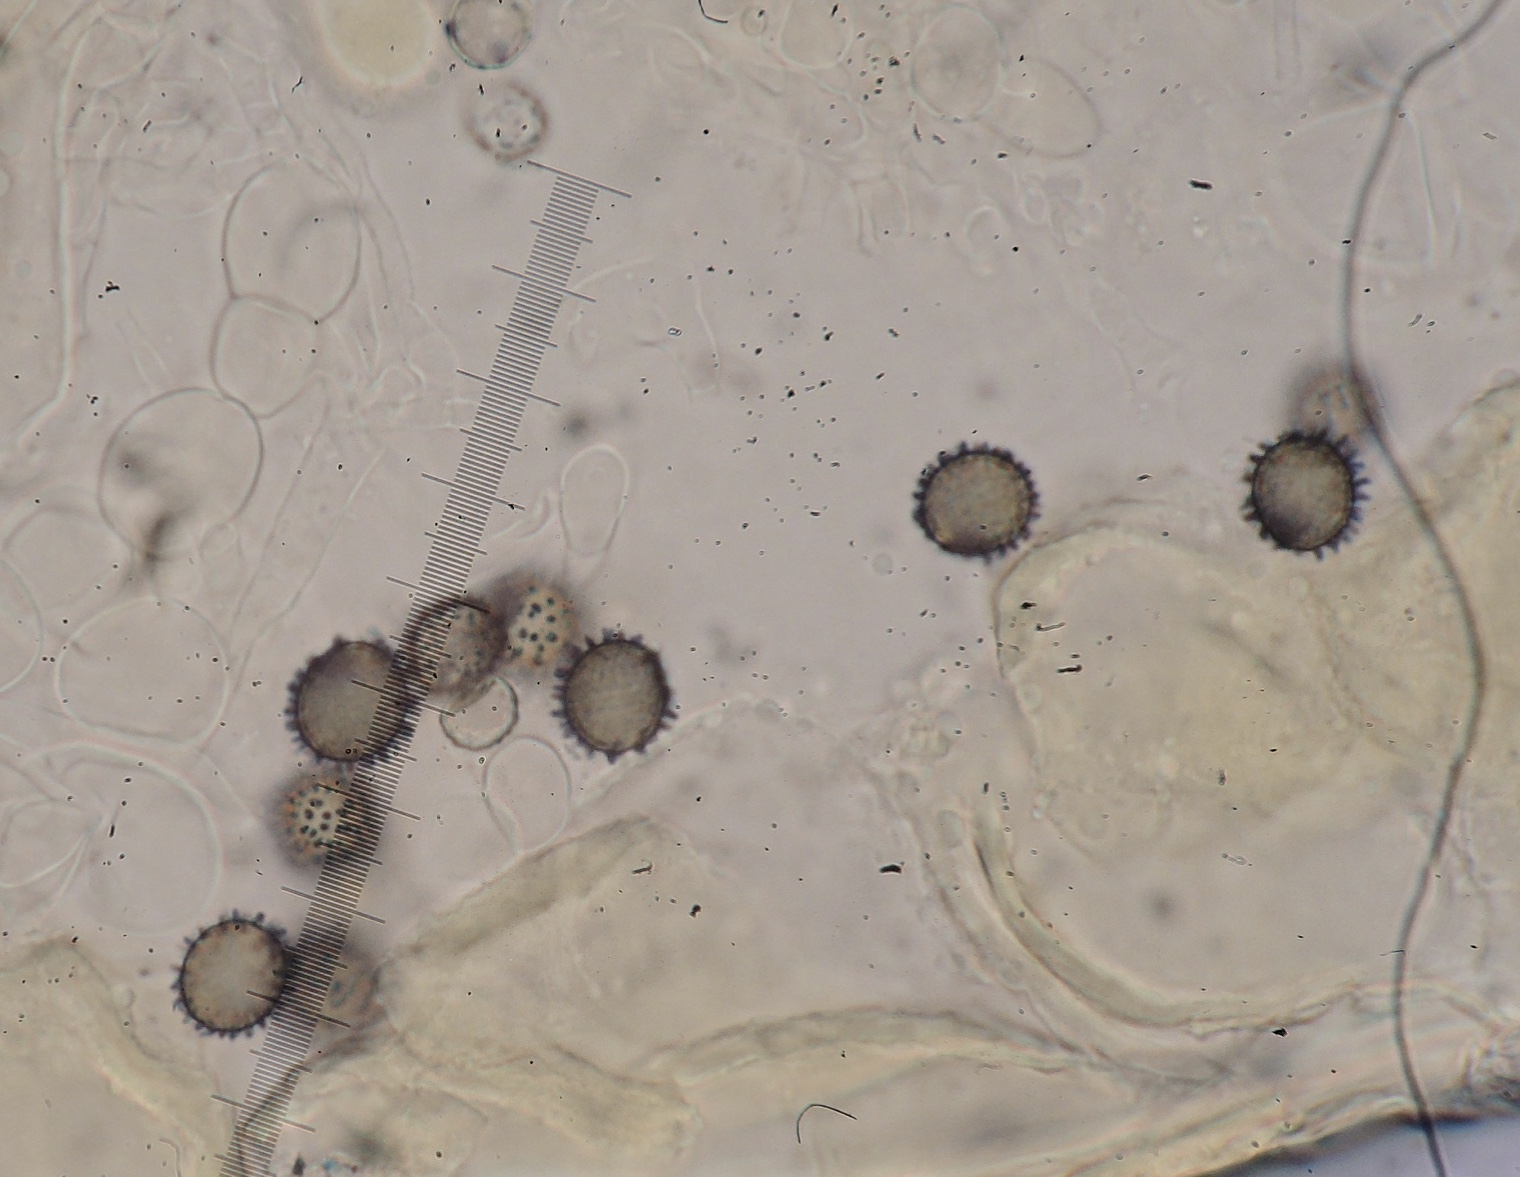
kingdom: Fungi
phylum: Basidiomycota
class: Agaricomycetes
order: Russulales
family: Russulaceae
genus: Russula
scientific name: Russula puellaris
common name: gulstokket skørhat
